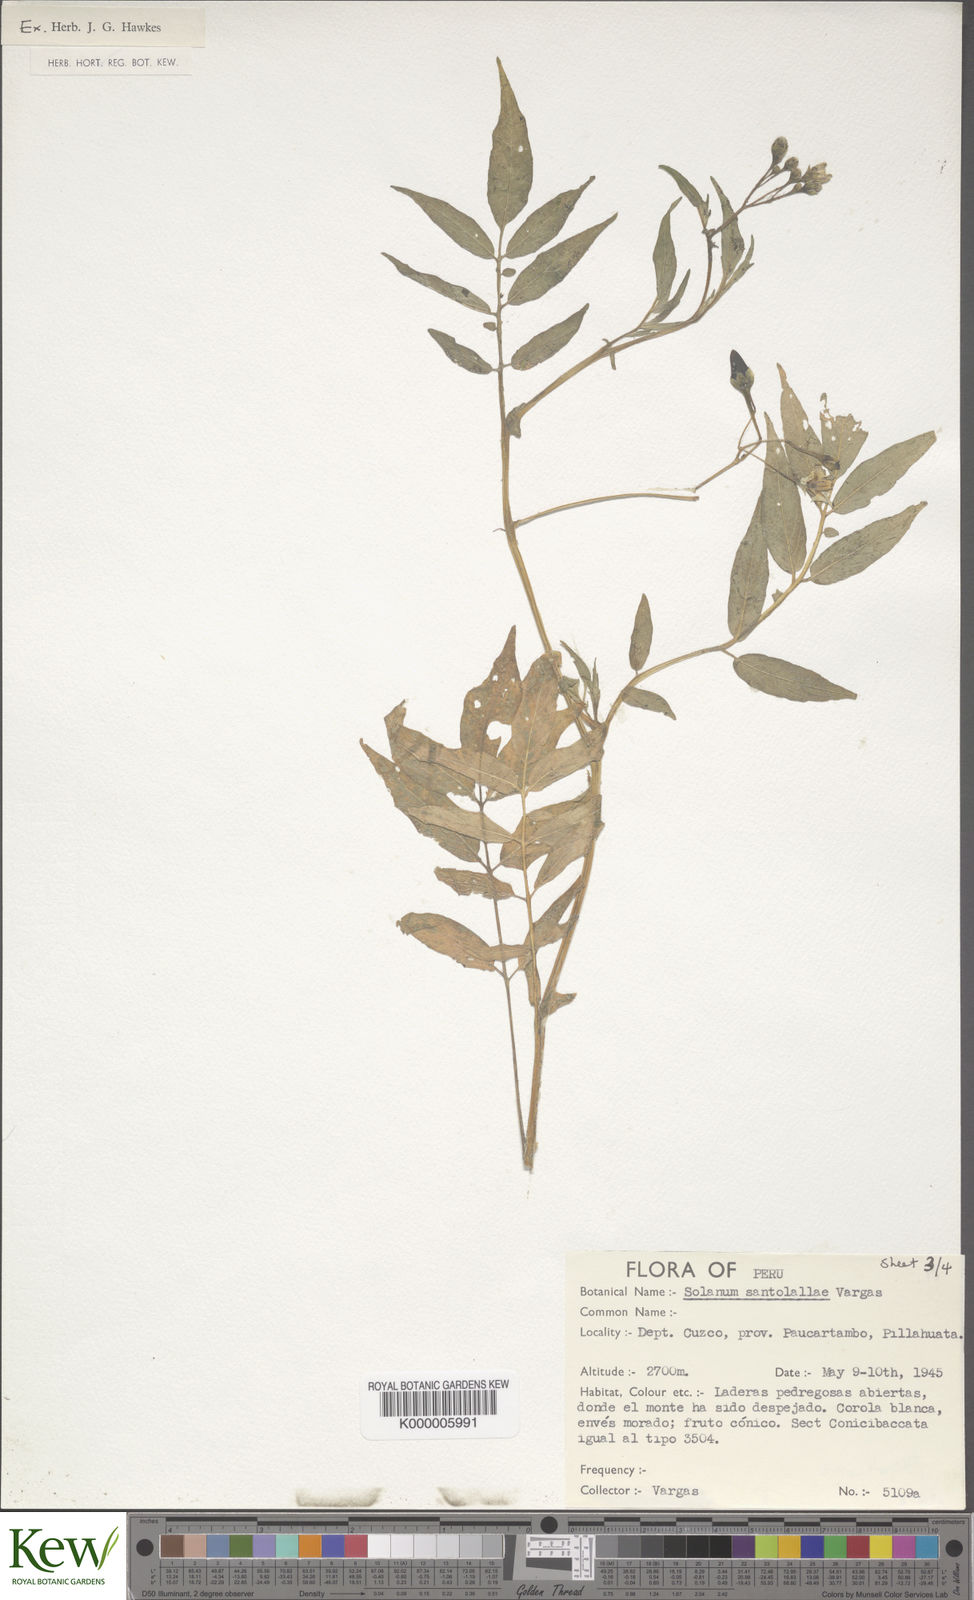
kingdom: Plantae
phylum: Tracheophyta
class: Magnoliopsida
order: Solanales
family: Solanaceae
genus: Solanum
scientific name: Solanum violaceimarmoratum
